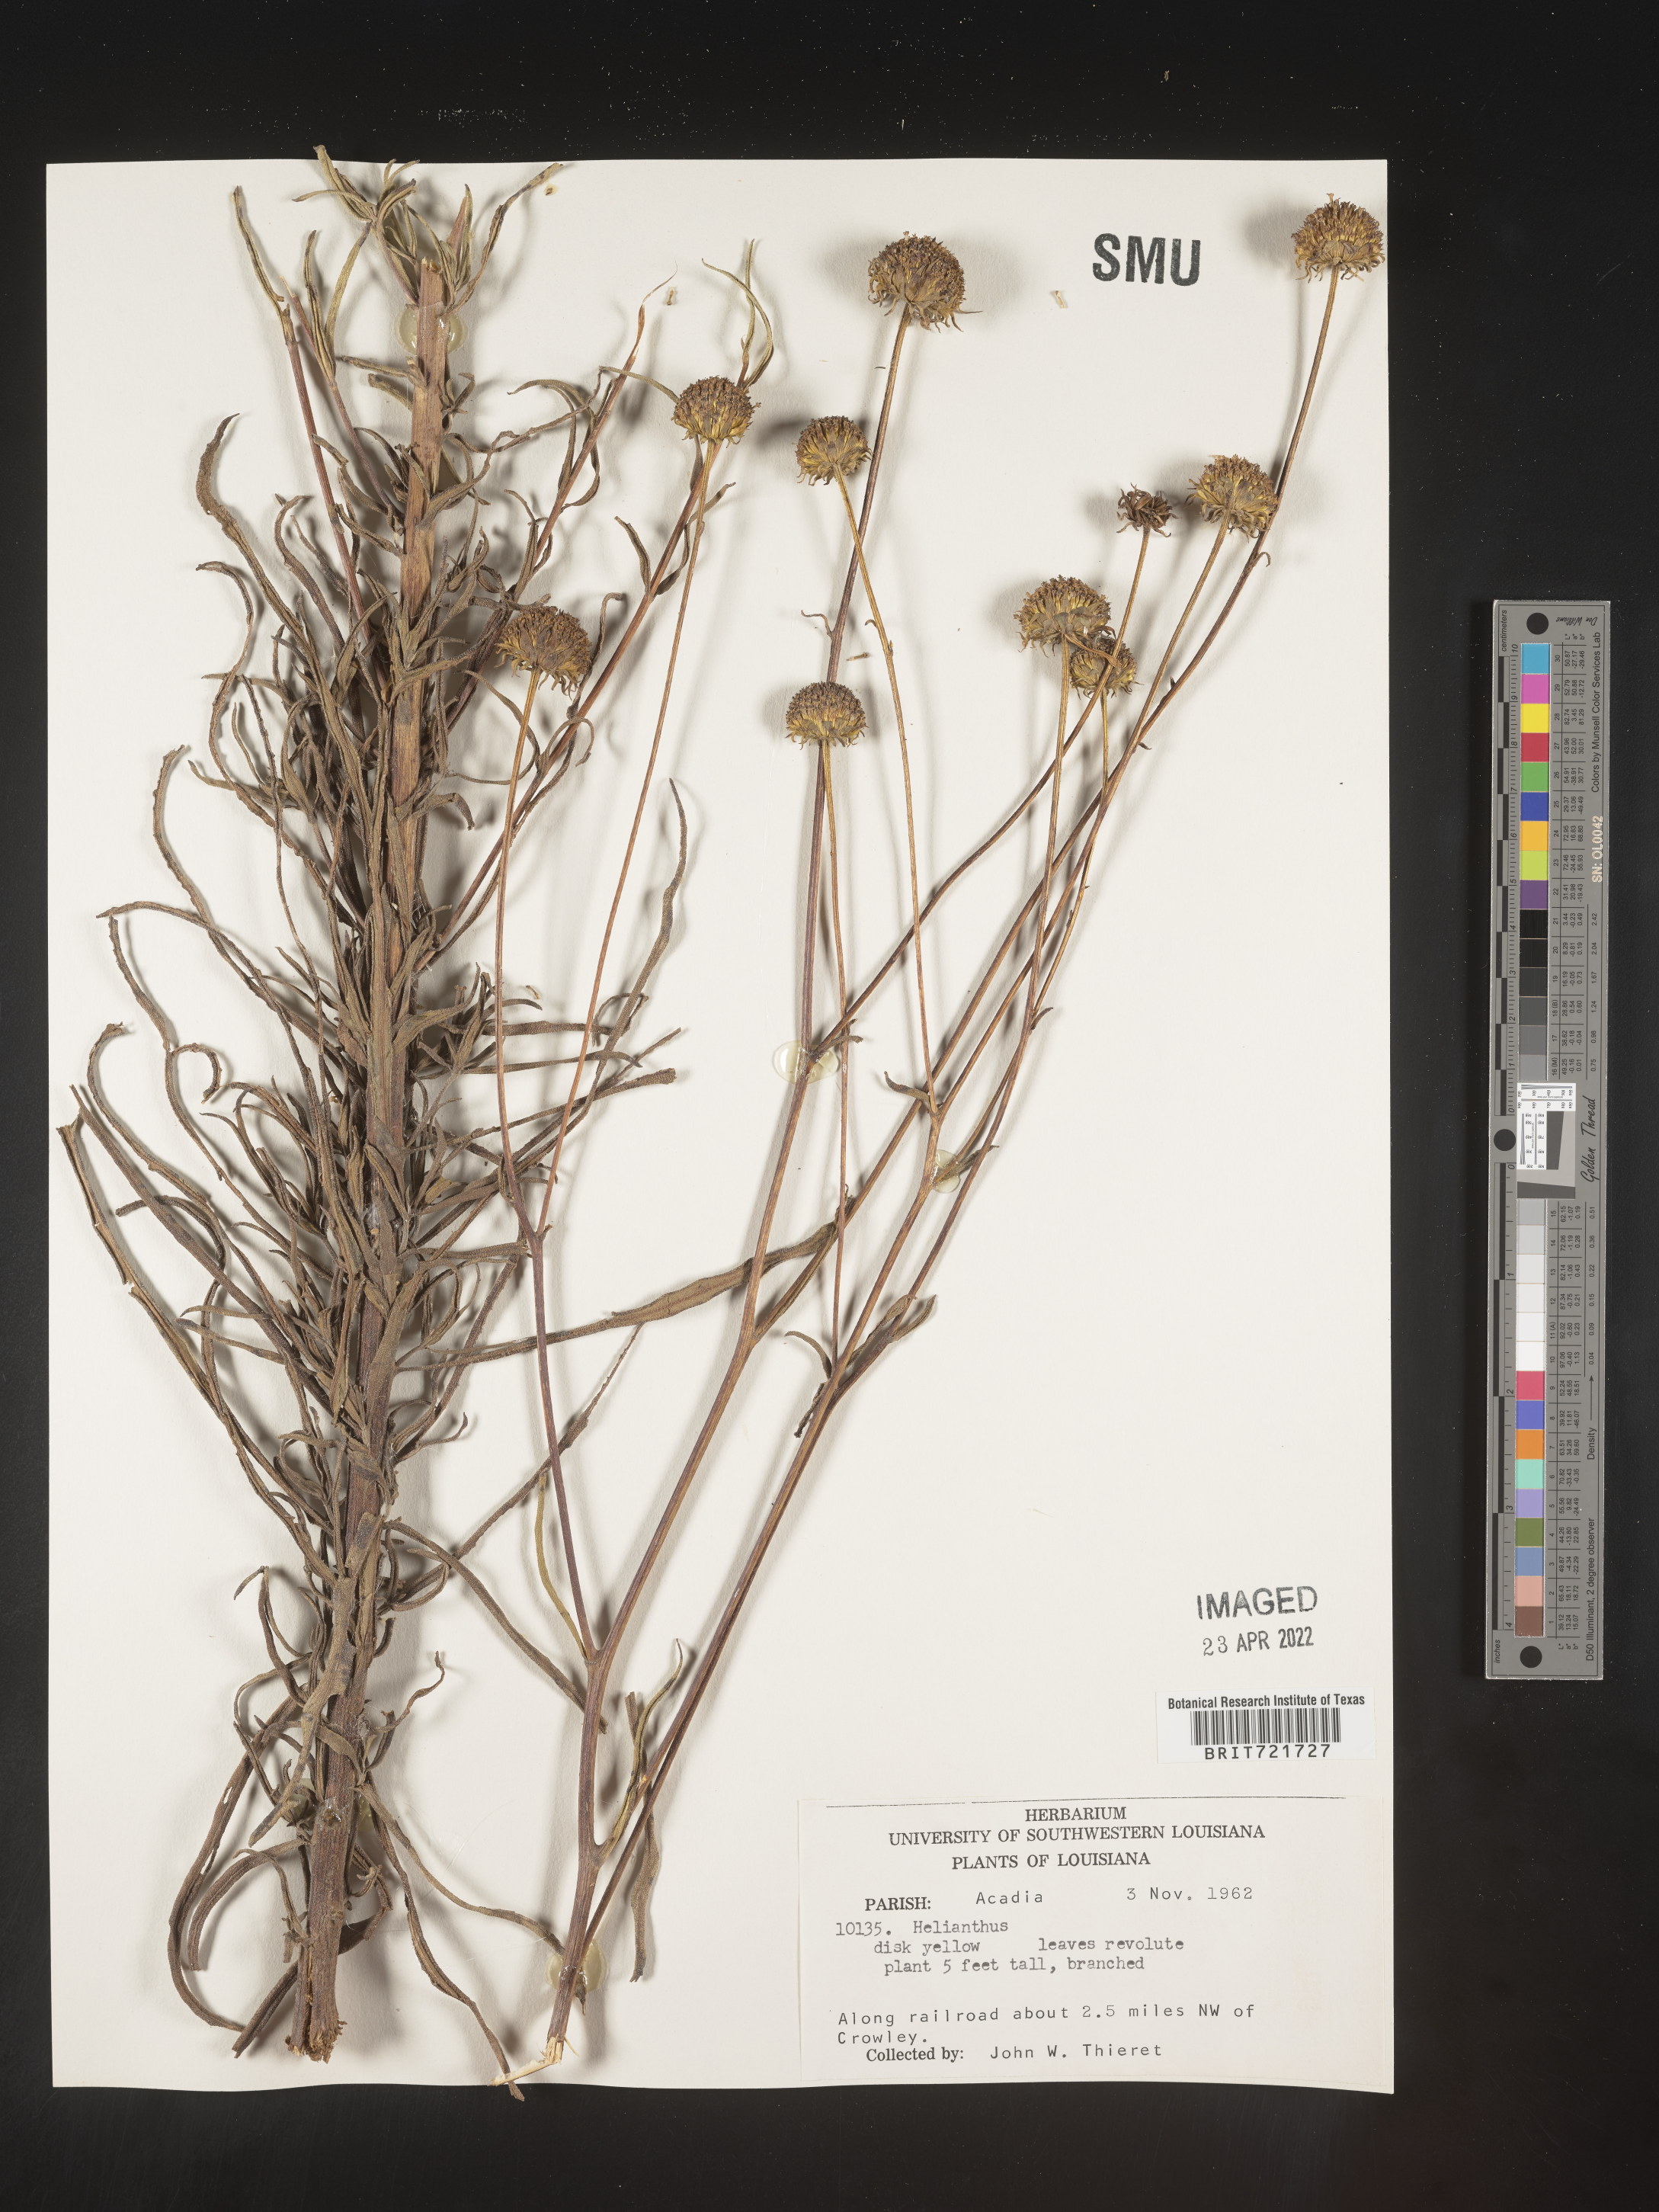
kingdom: Plantae
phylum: Tracheophyta
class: Magnoliopsida
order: Asterales
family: Asteraceae
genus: Helianthus
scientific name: Helianthus angustifolius
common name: Swamp sunflower
